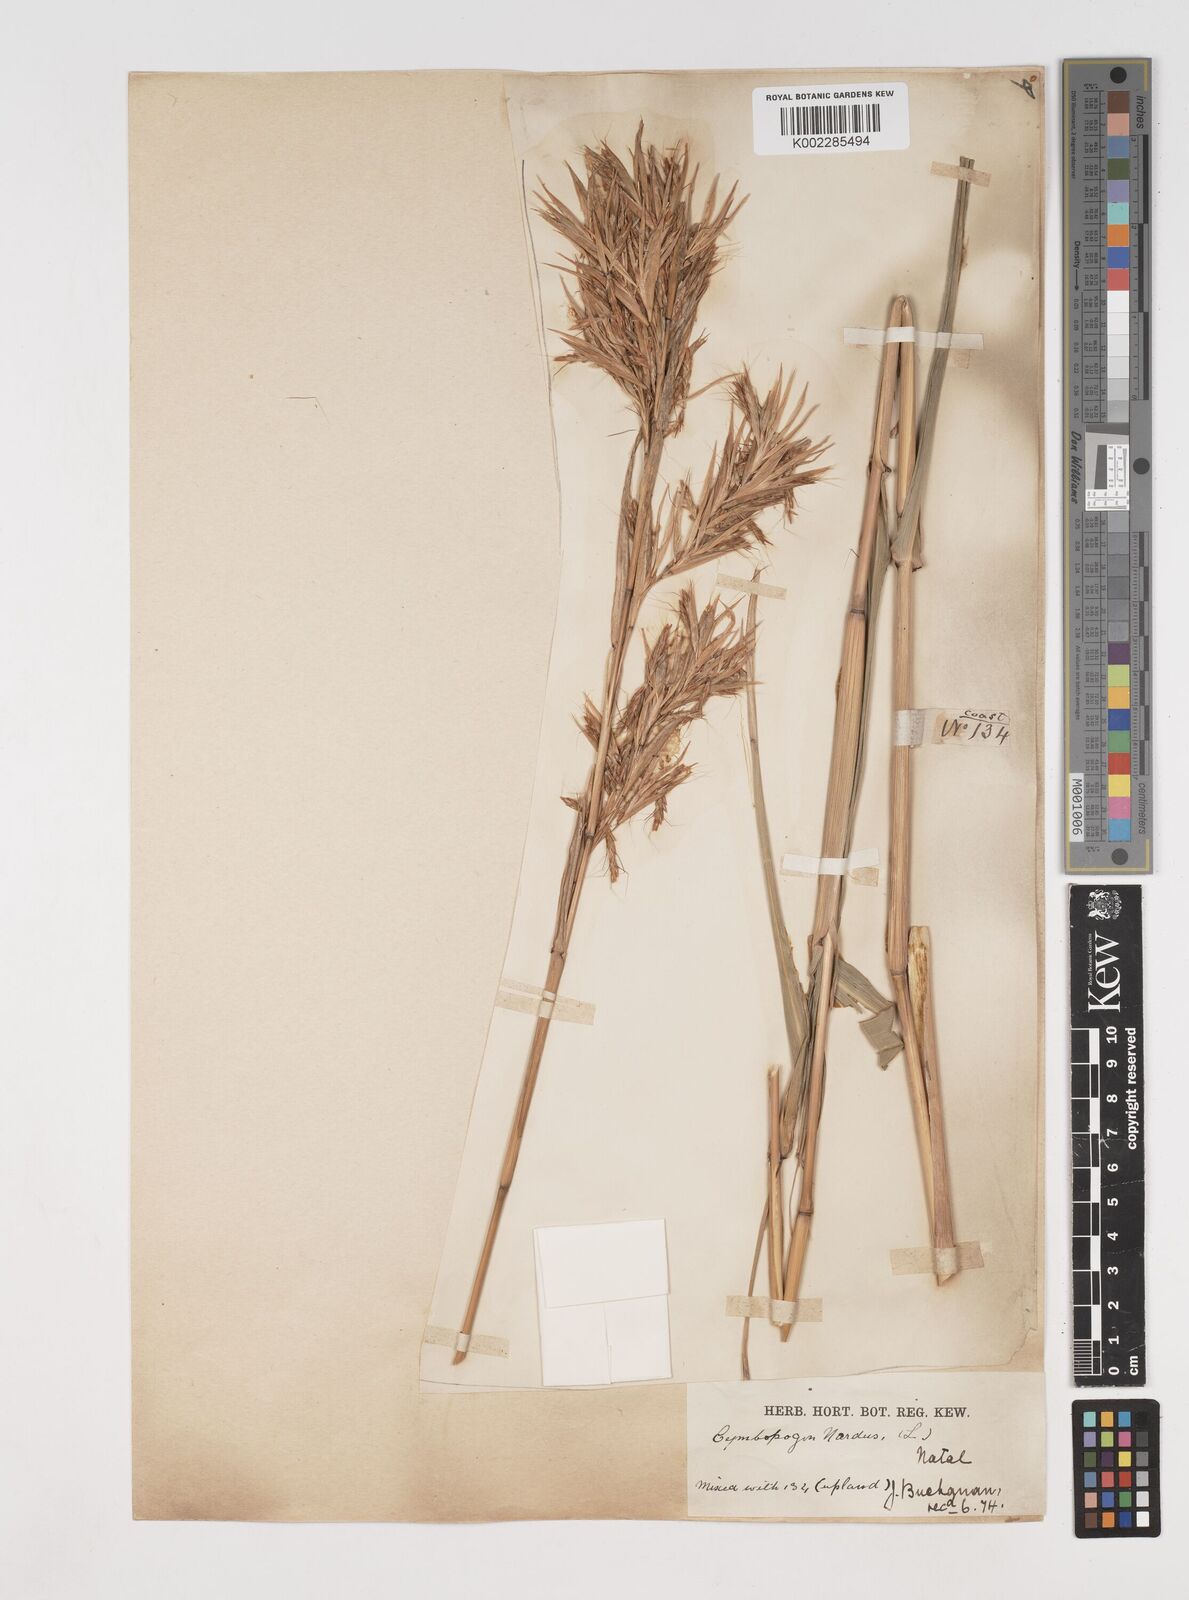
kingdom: Plantae
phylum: Tracheophyta
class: Liliopsida
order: Poales
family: Poaceae
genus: Cymbopogon
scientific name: Cymbopogon giganteus
